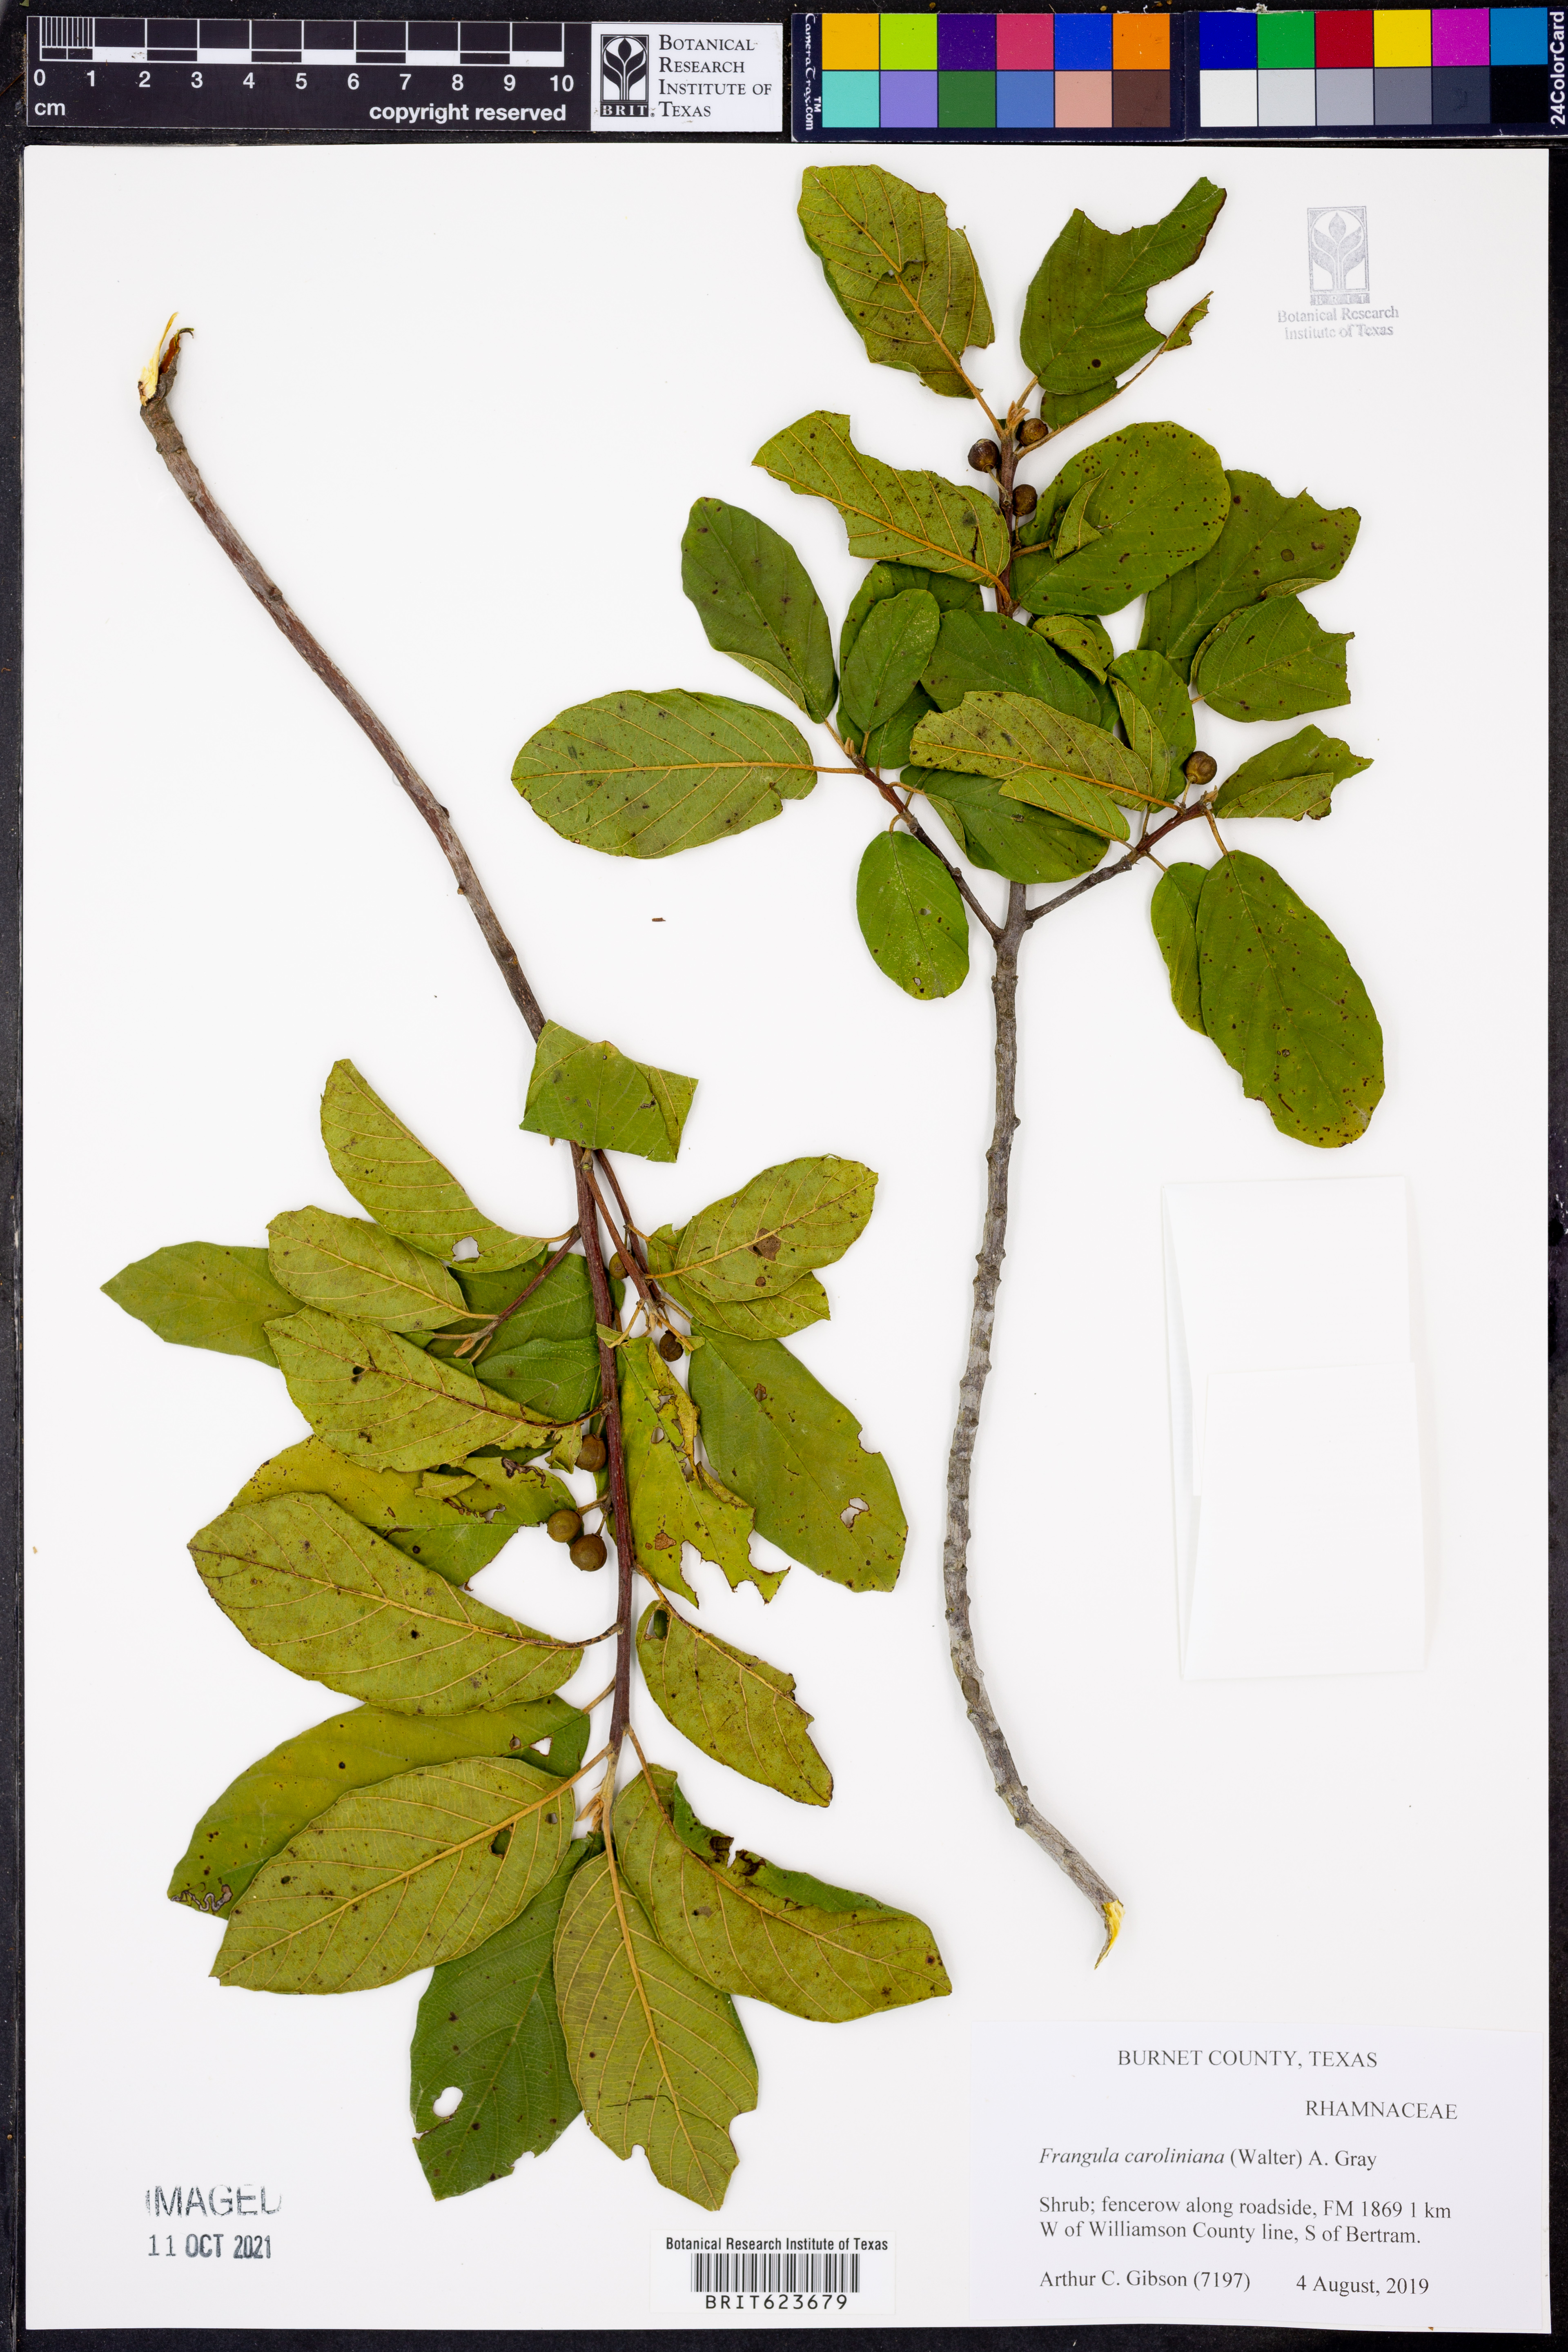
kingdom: Plantae
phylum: Tracheophyta
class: Magnoliopsida
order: Rosales
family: Rhamnaceae
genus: Frangula
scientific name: Frangula caroliniana
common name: Carolina buckthorn
